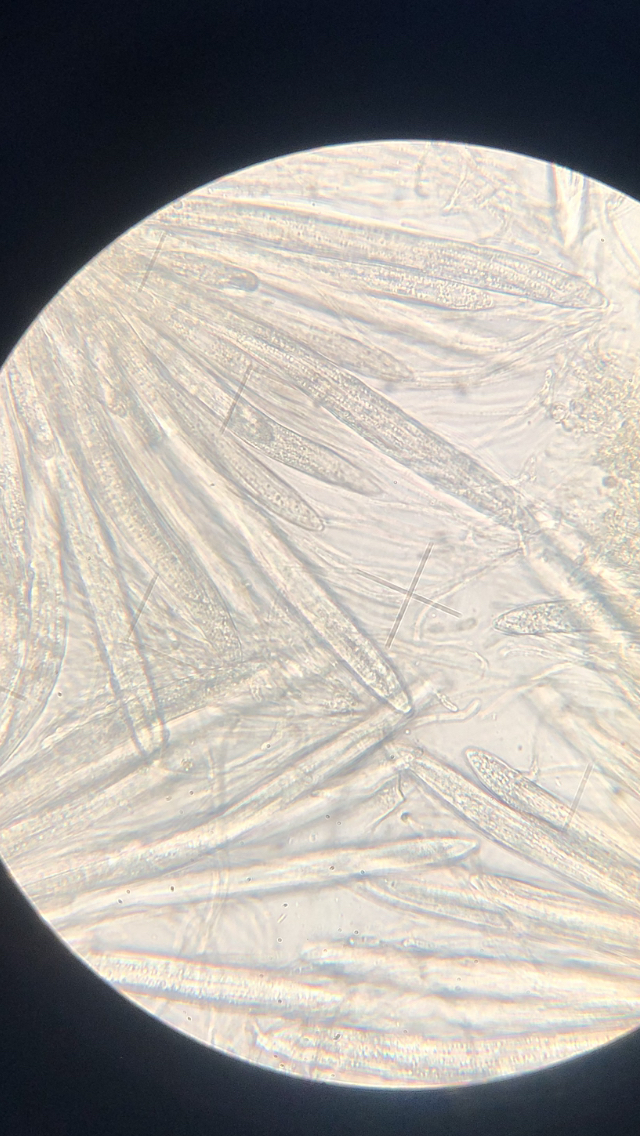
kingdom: Fungi
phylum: Ascomycota
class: Leotiomycetes
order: Rhytismatales
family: Rhytismataceae
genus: Lophodermium
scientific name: Lophodermium seditiosum
